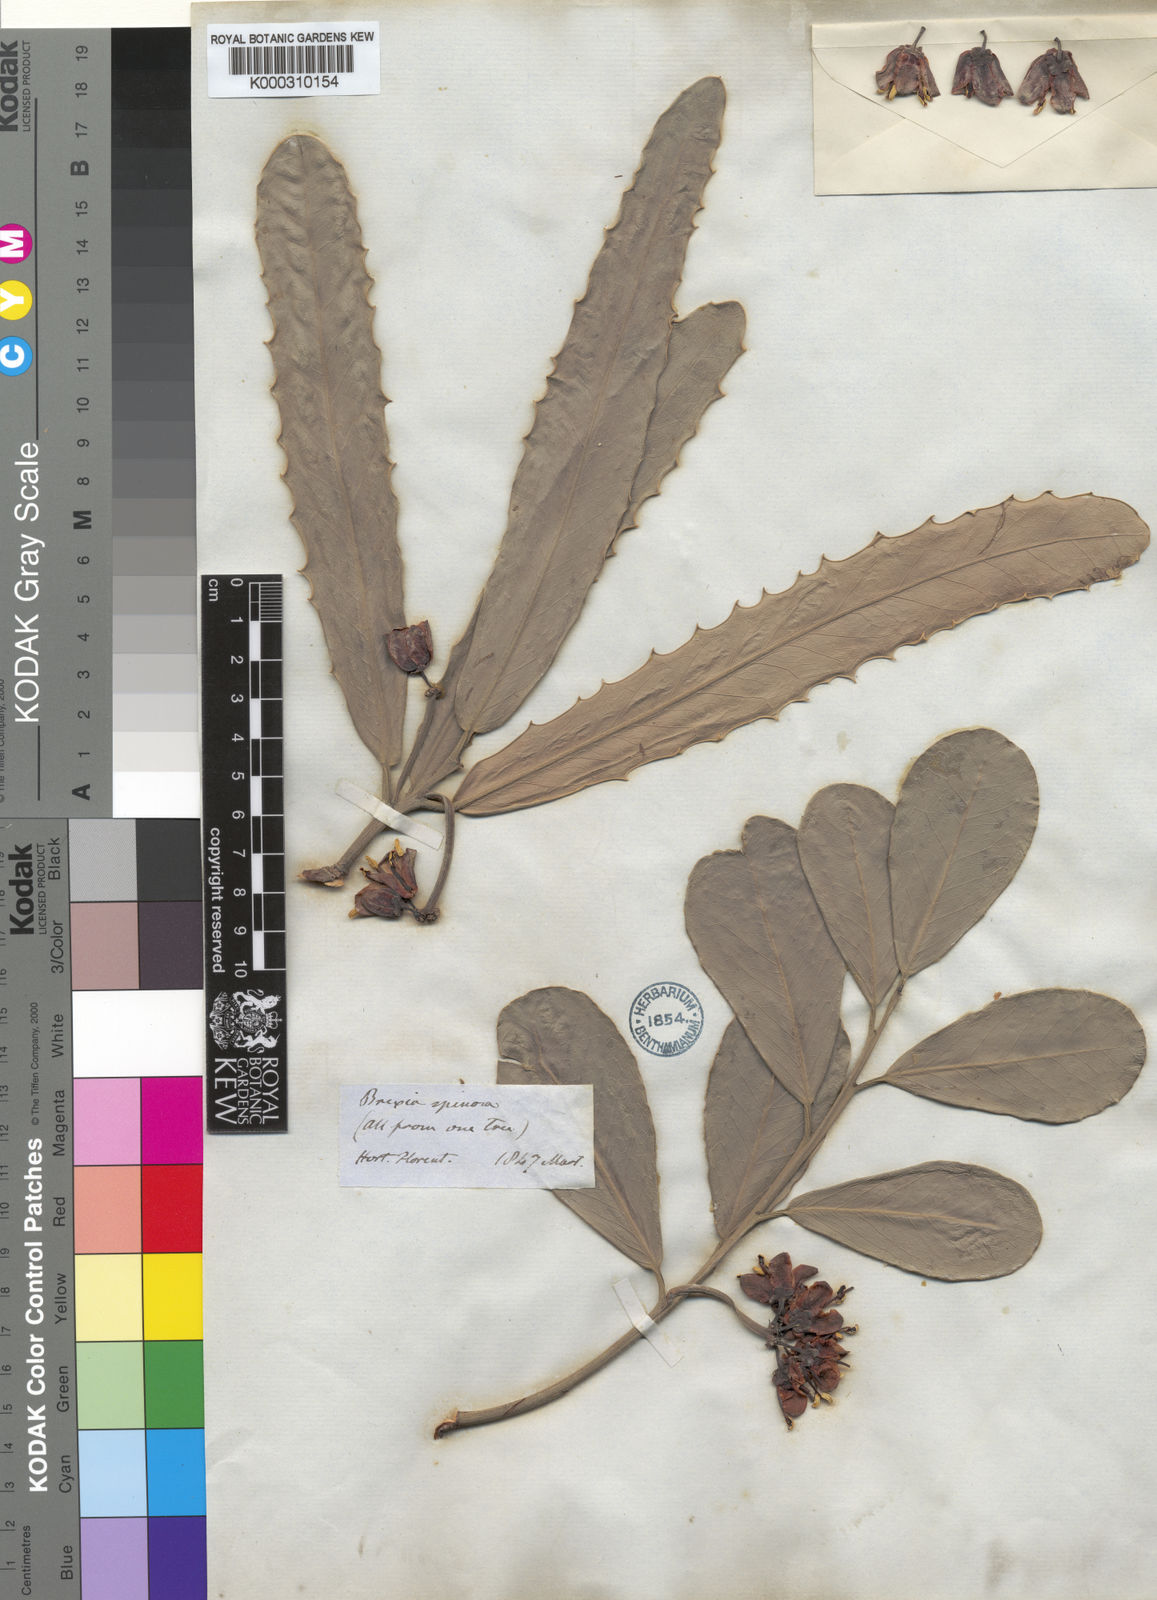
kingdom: Plantae
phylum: Tracheophyta
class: Magnoliopsida
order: Celastrales
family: Celastraceae
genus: Brexia
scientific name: Brexia madagascariensis
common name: Brexia
